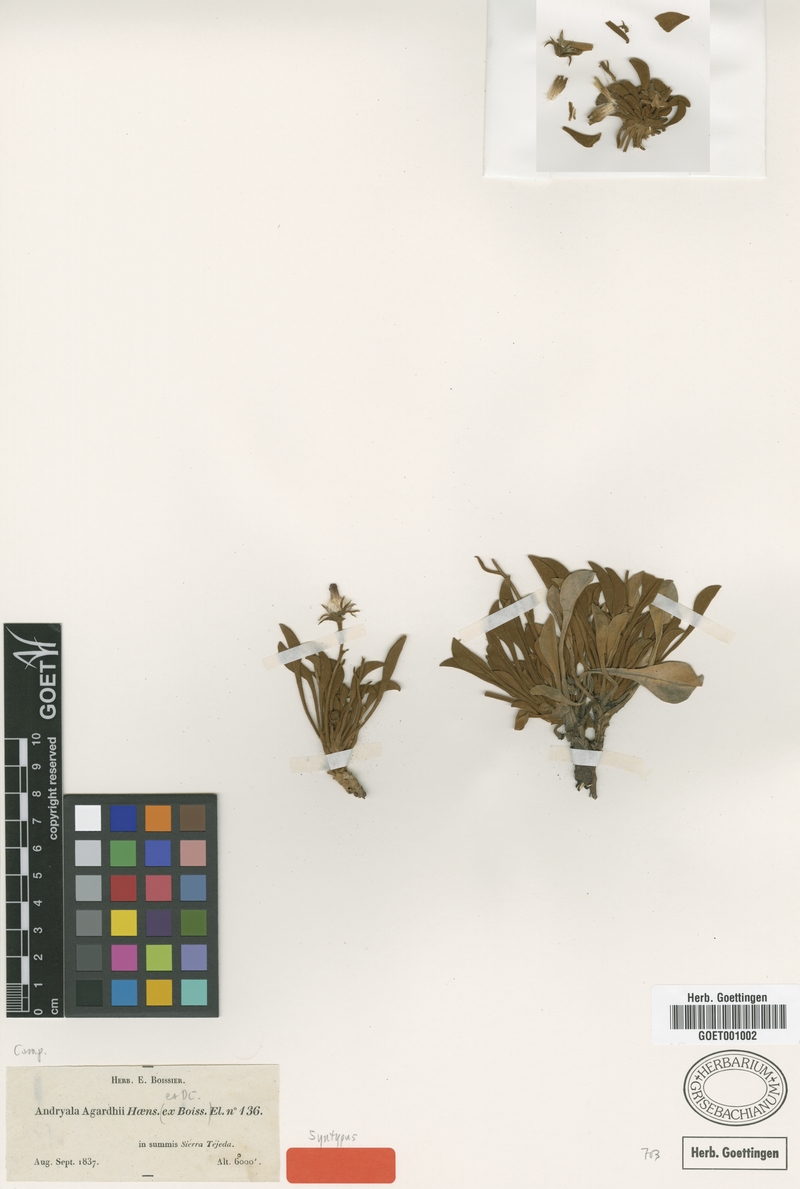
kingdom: Plantae
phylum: Tracheophyta
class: Magnoliopsida
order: Asterales
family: Asteraceae
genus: Andryala
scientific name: Andryala agardhii
